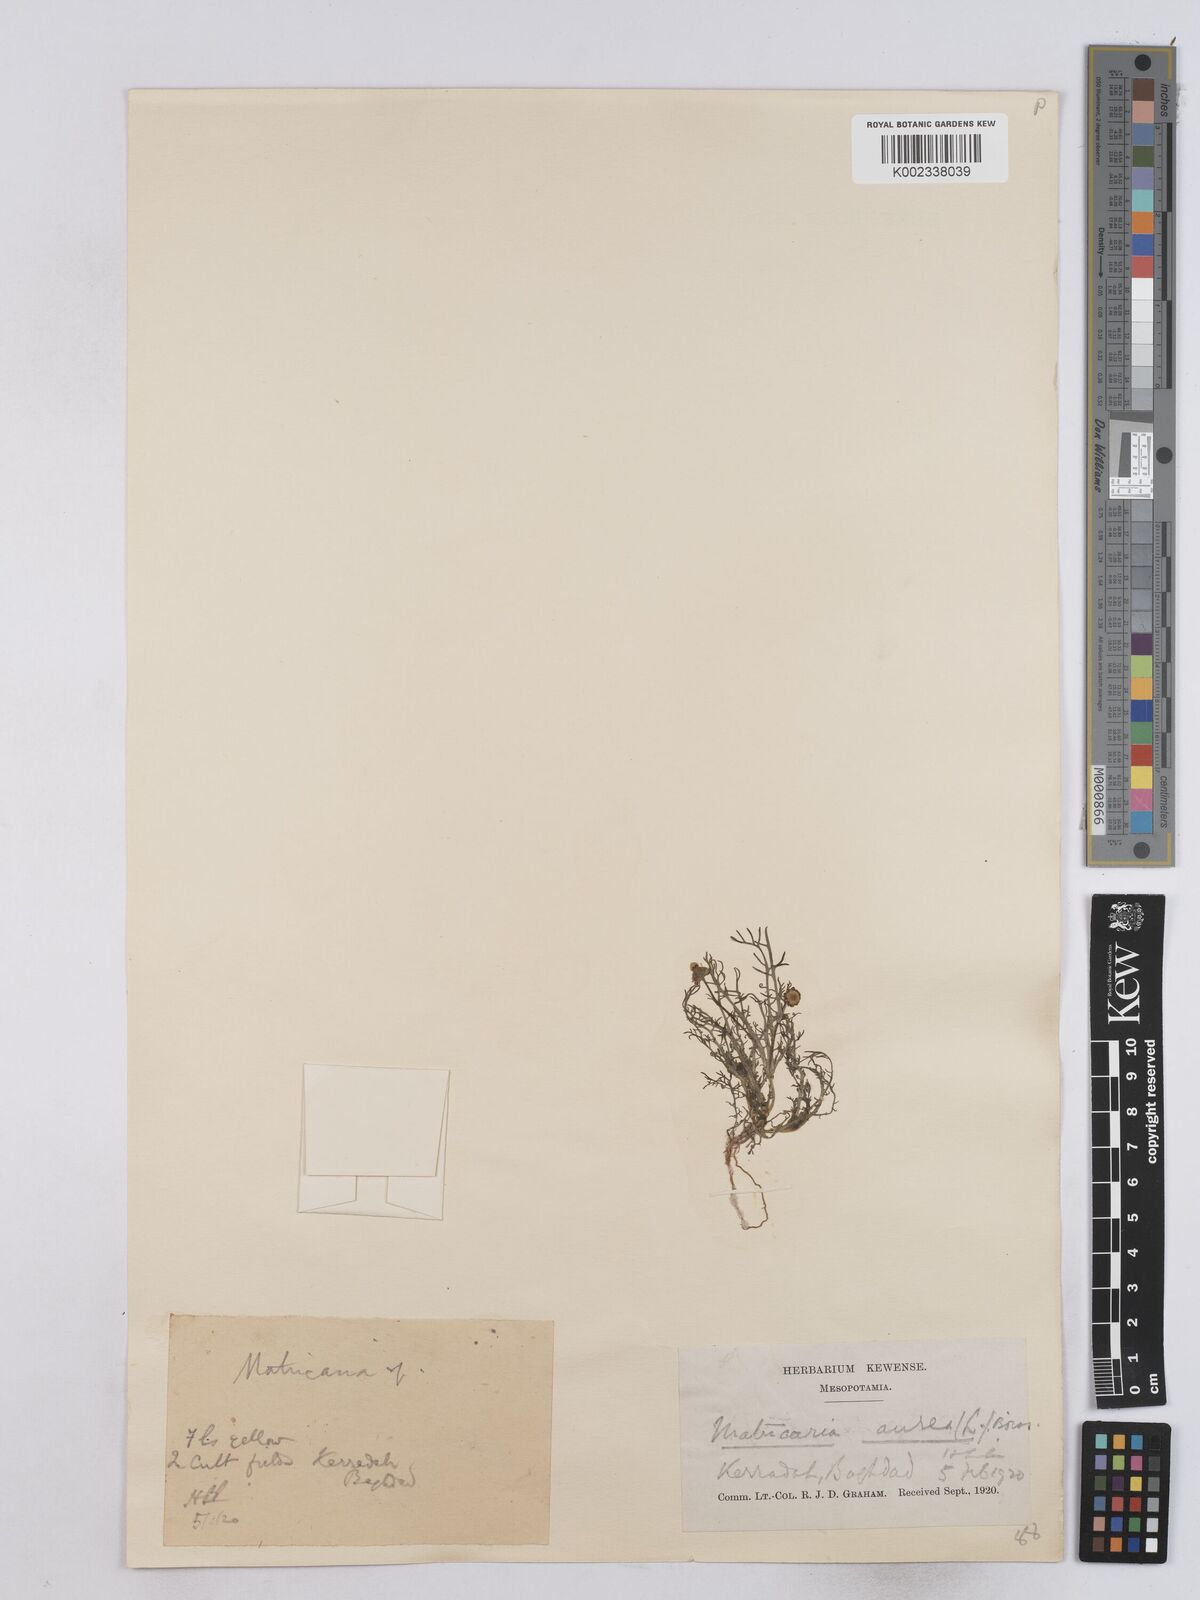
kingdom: Plantae
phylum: Tracheophyta
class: Magnoliopsida
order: Asterales
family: Asteraceae
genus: Matricaria
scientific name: Matricaria aurea
